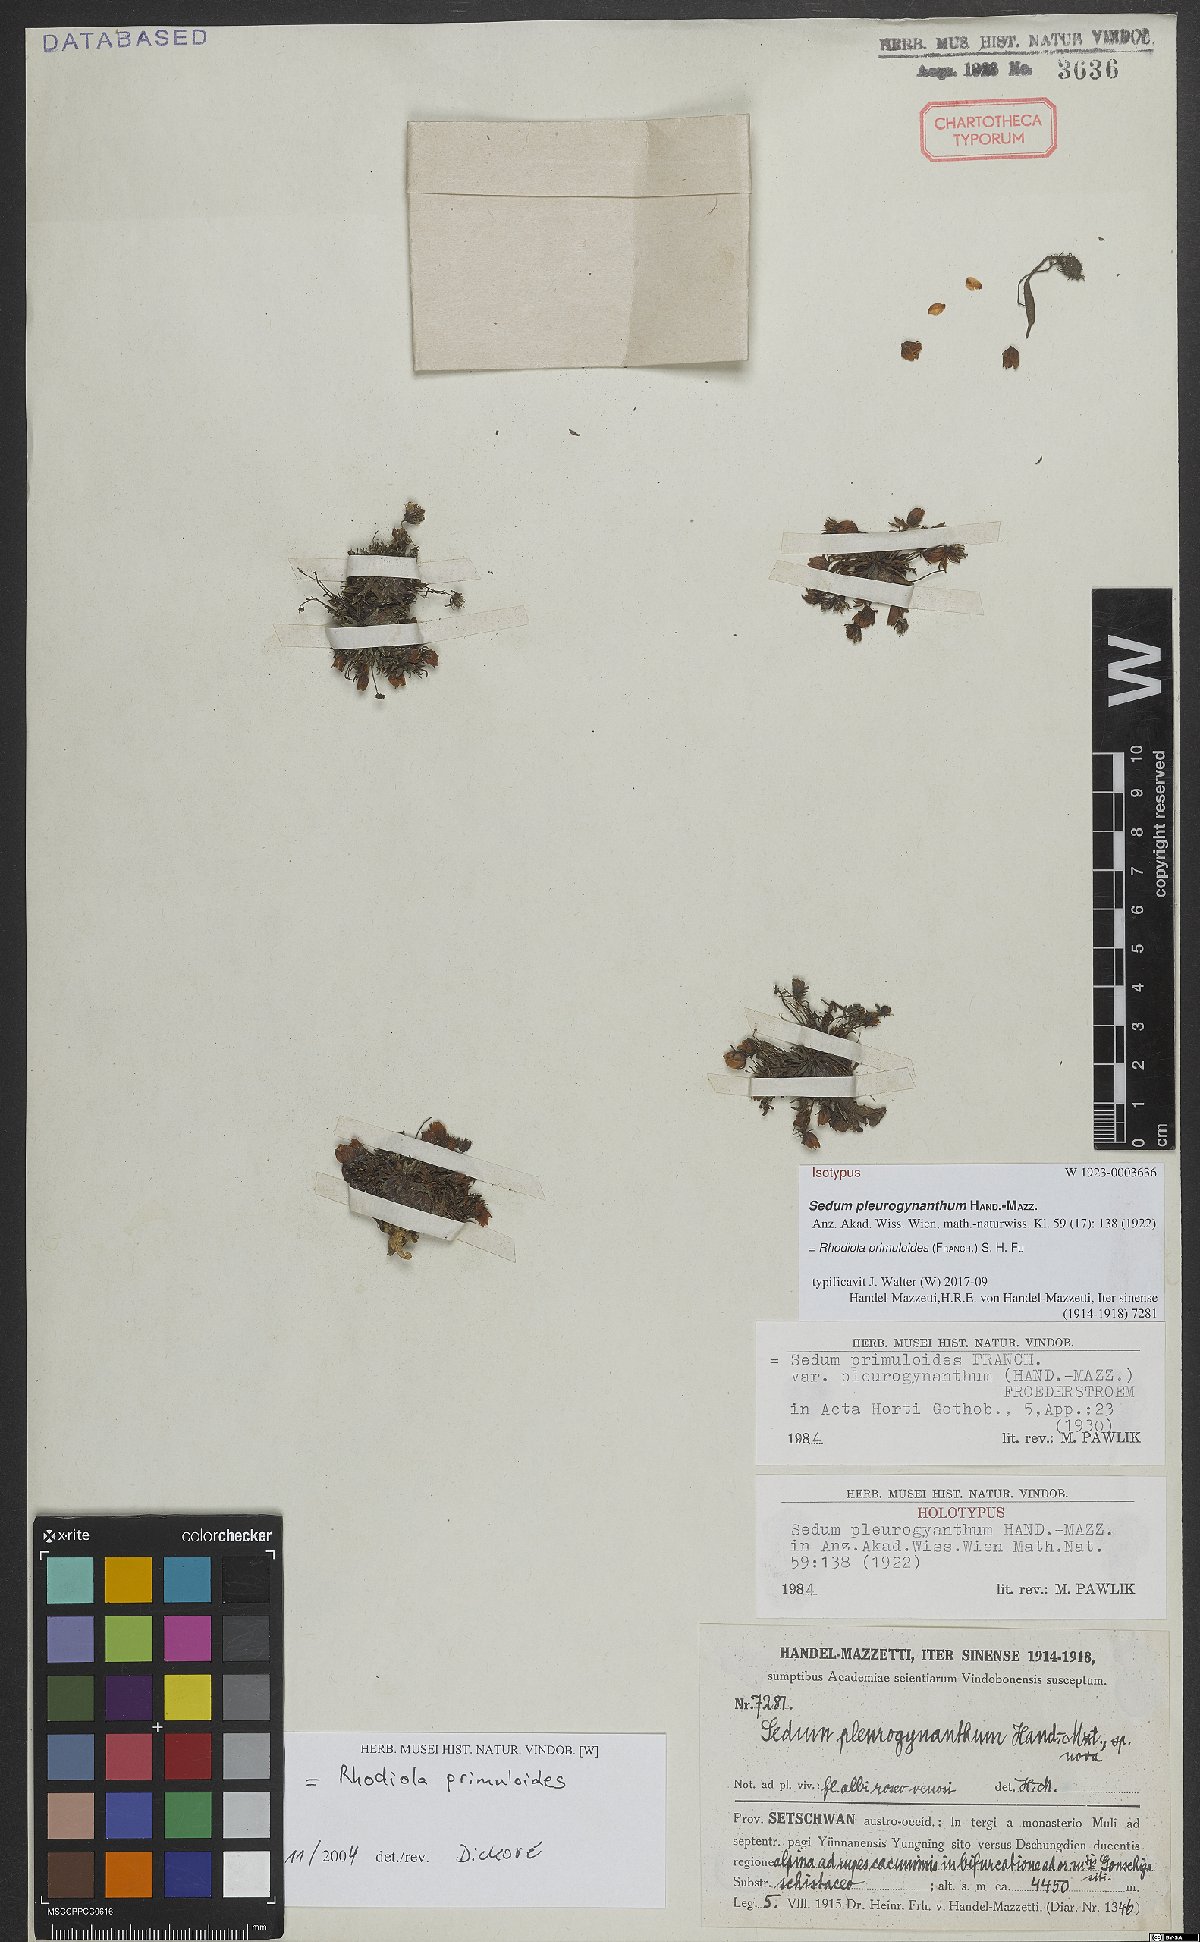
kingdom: Plantae
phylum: Tracheophyta
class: Magnoliopsida
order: Saxifragales
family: Crassulaceae
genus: Rhodiola
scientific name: Rhodiola primuloides
